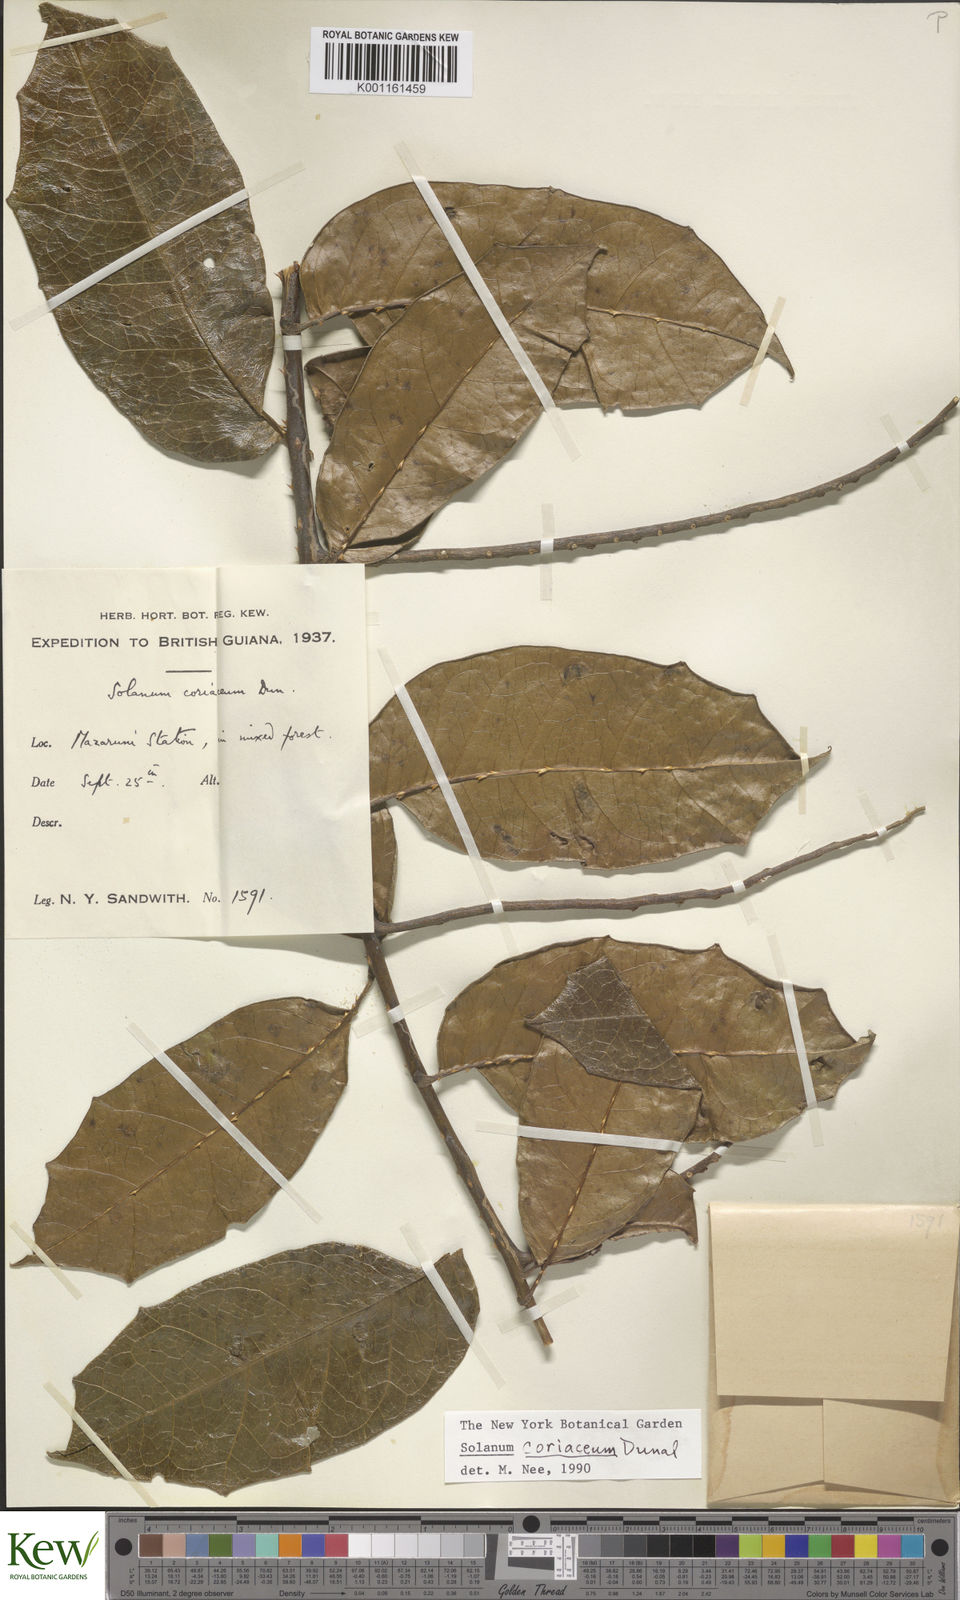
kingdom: Plantae
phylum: Tracheophyta
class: Magnoliopsida
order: Solanales
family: Solanaceae
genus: Solanum
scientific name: Solanum coriaceum
